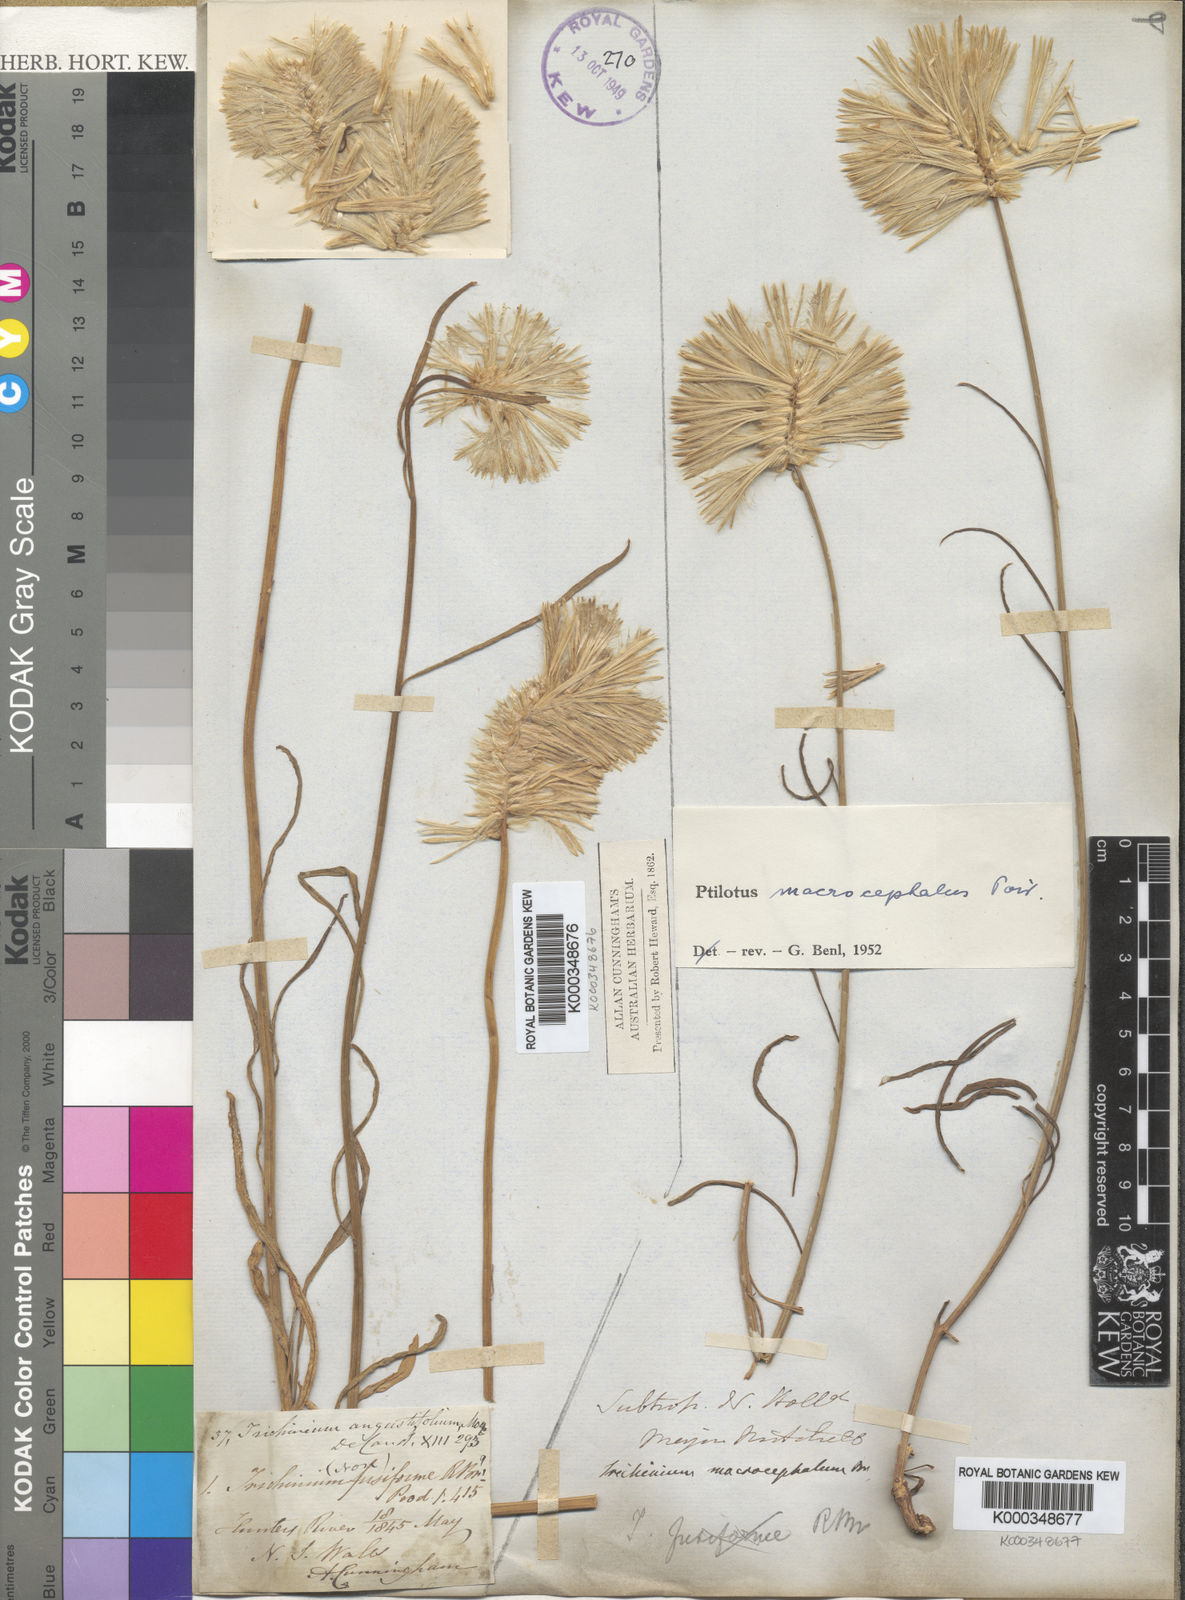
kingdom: Plantae
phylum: Tracheophyta
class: Magnoliopsida
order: Caryophyllales
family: Amaranthaceae
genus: Ptilotus
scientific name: Ptilotus macrocephalus
